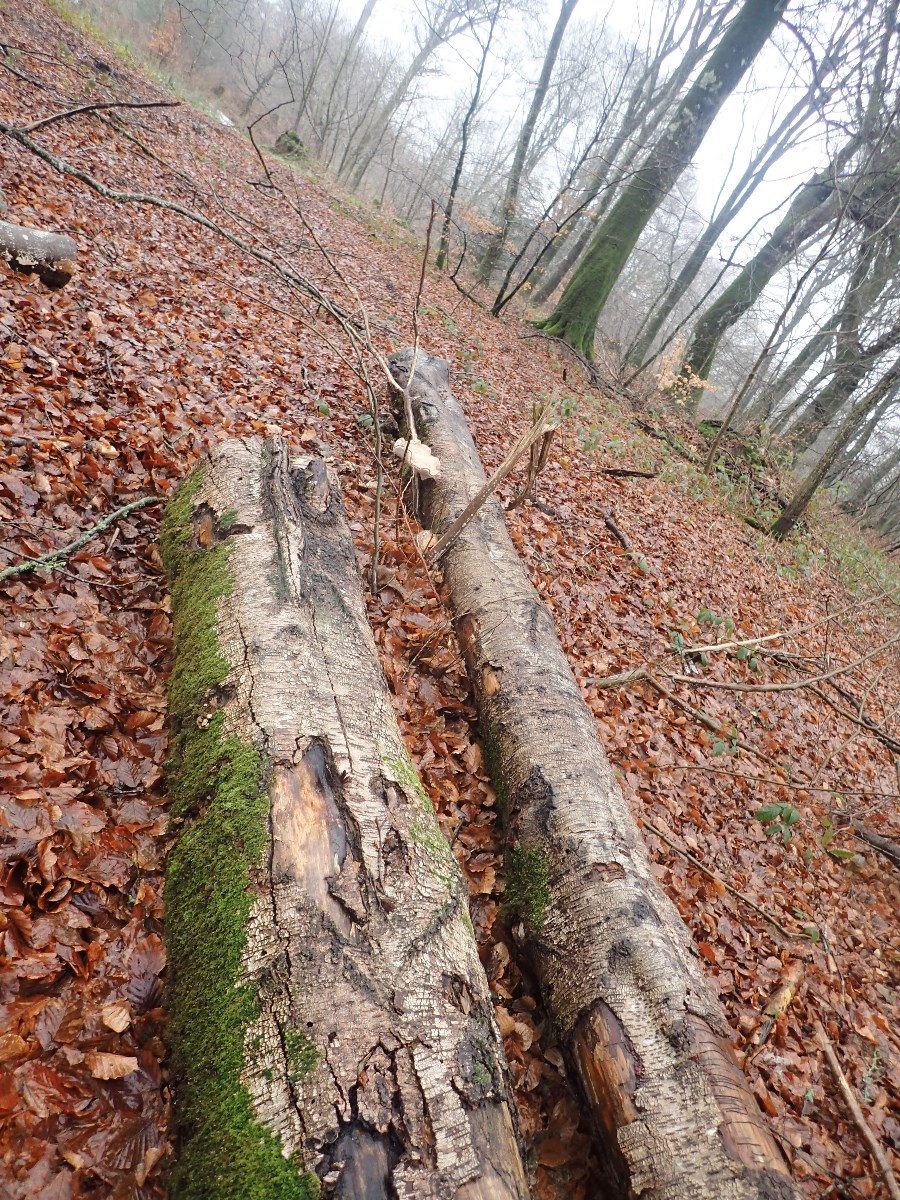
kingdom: Fungi
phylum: Basidiomycota
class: Agaricomycetes
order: Polyporales
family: Fomitopsidaceae
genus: Fomitopsis
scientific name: Fomitopsis betulina
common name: birkeporesvamp
